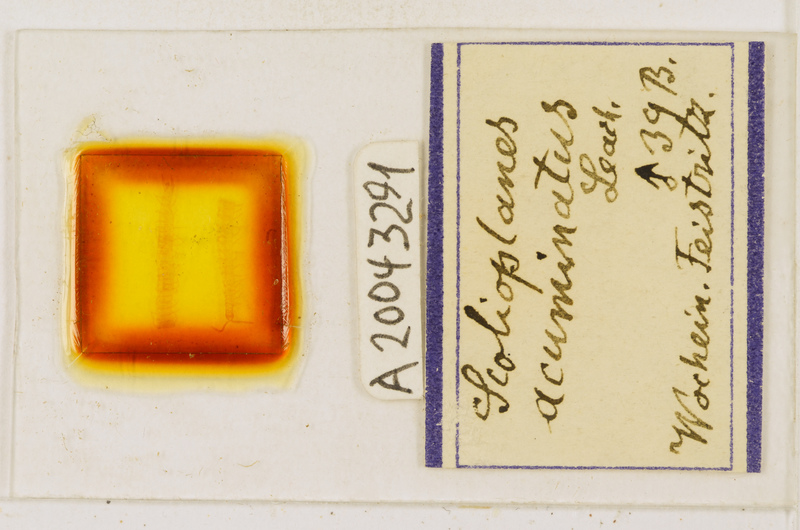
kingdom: Animalia
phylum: Arthropoda
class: Chilopoda
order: Geophilomorpha
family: Linotaeniidae
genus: Strigamia
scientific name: Strigamia acuminata
